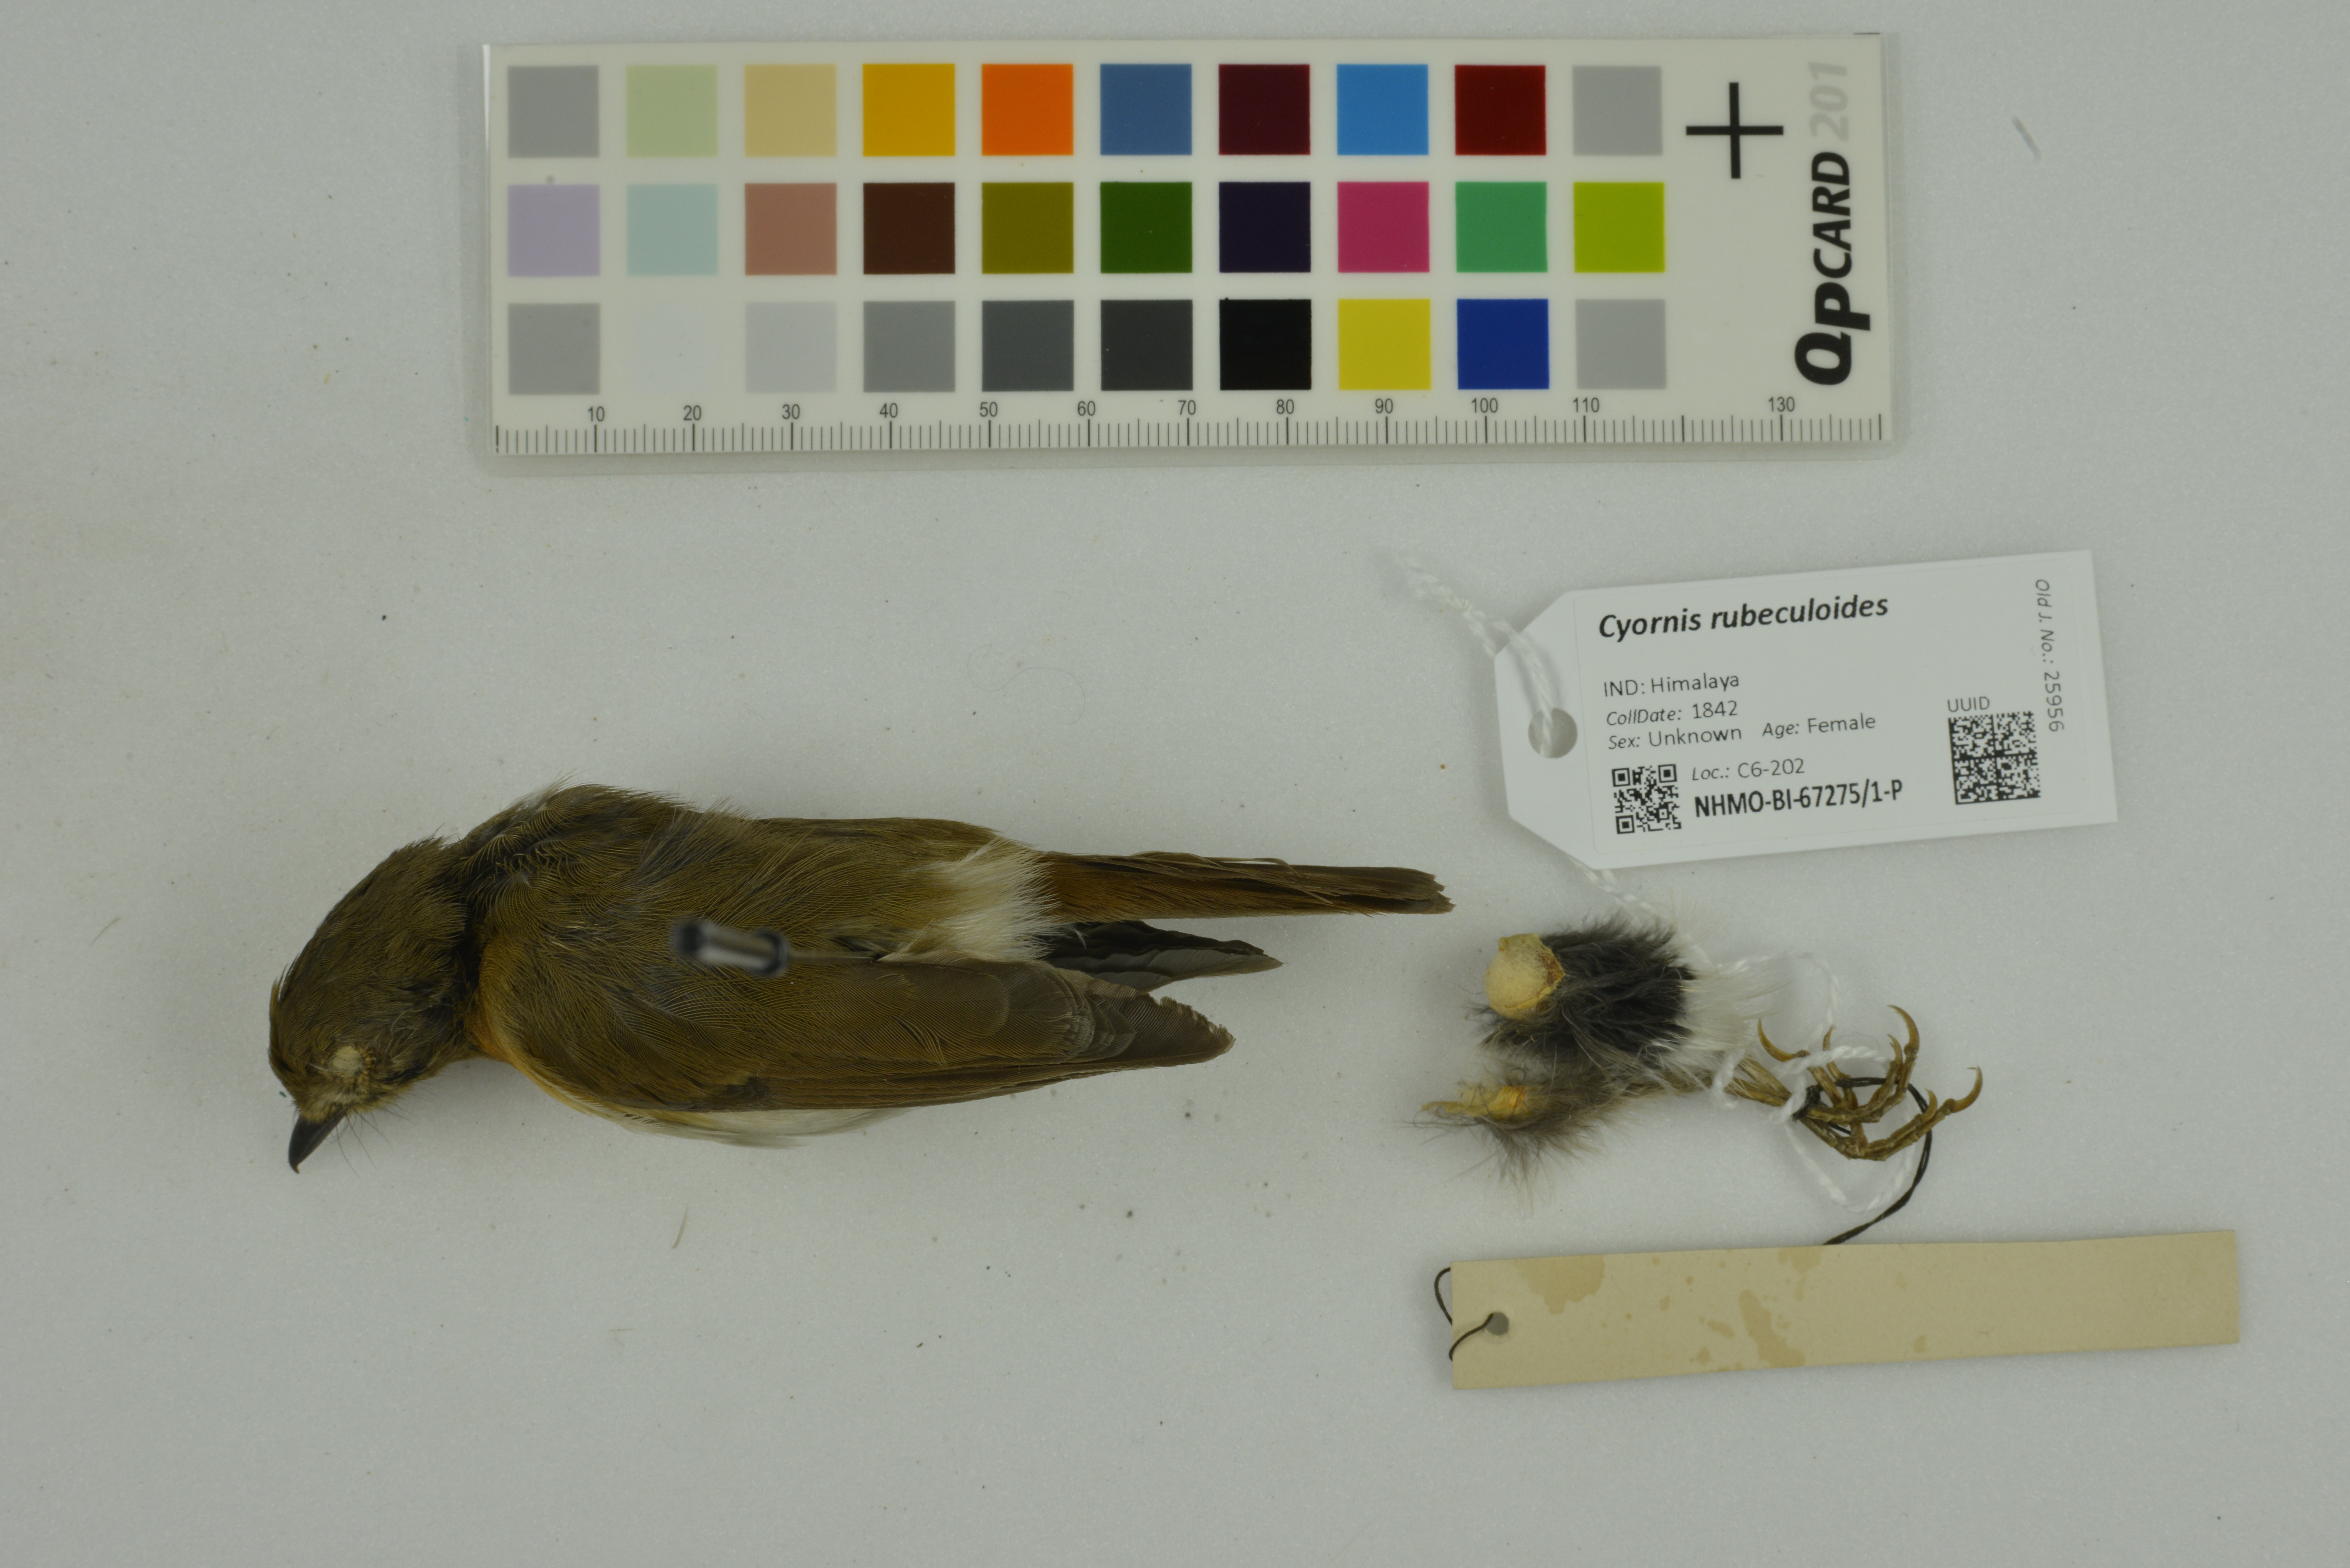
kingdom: Animalia
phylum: Chordata
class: Aves
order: Passeriformes
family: Muscicapidae
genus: Cyornis
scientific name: Cyornis rubeculoides
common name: Blue-throated blue flycatcher
